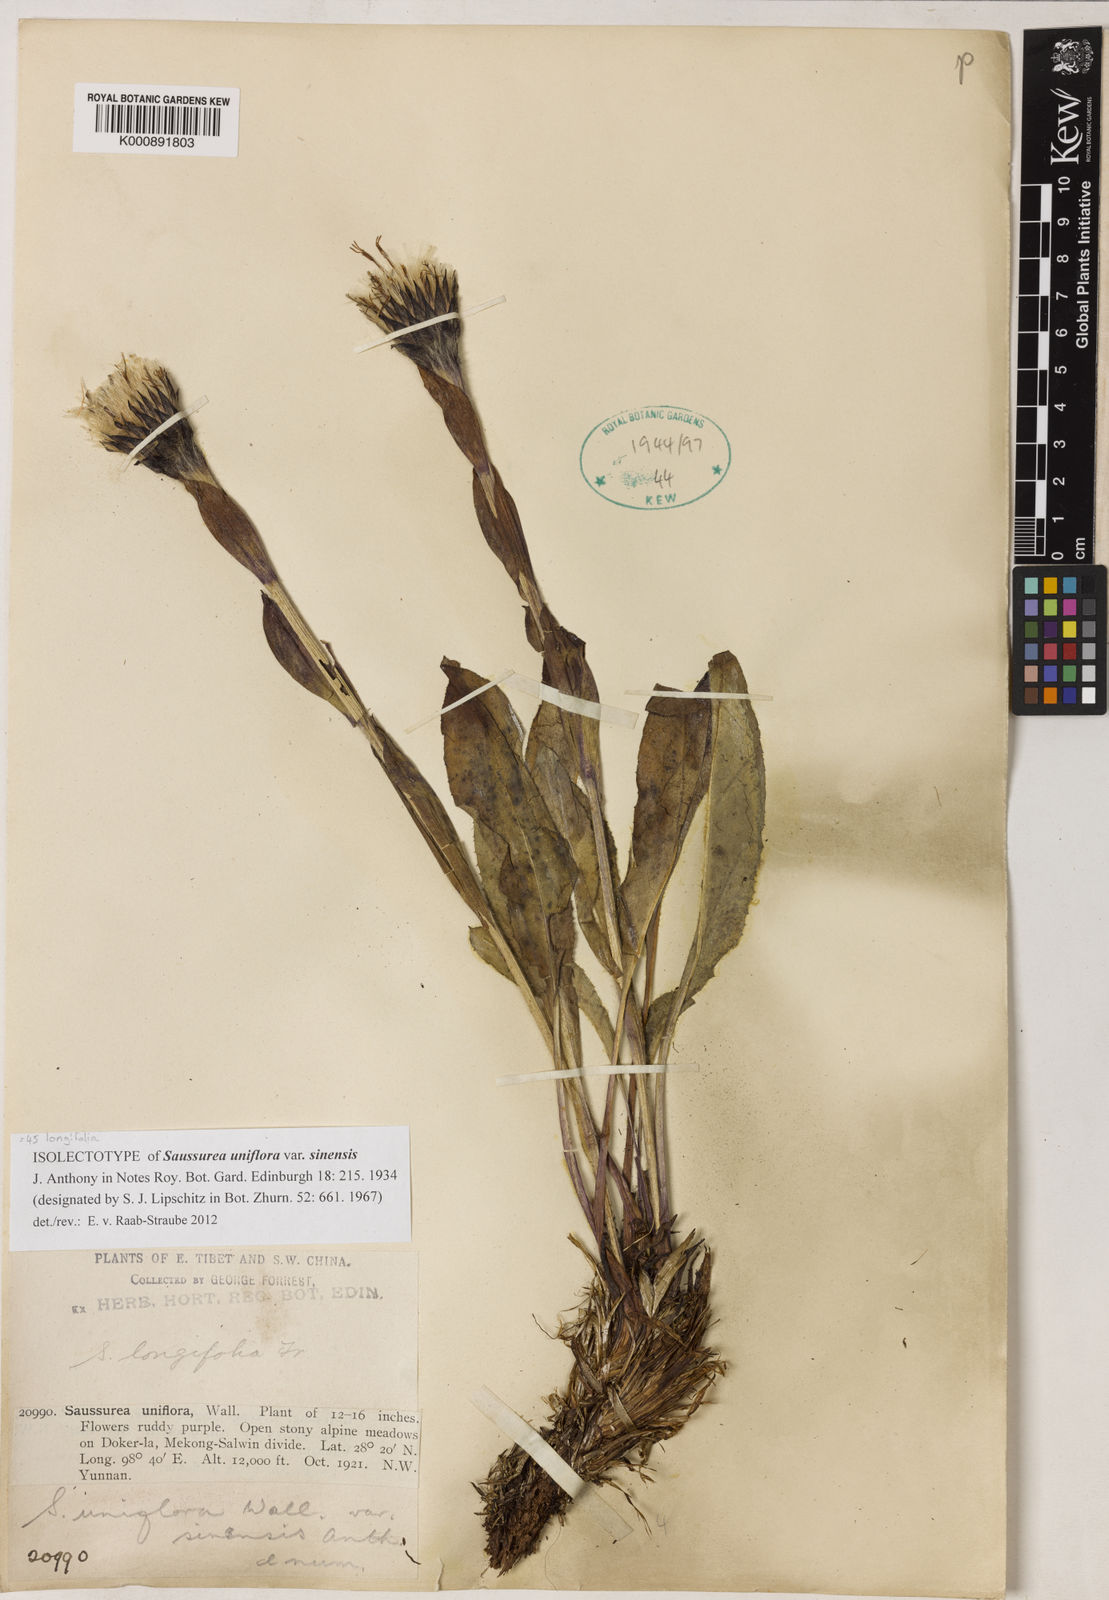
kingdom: Plantae
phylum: Tracheophyta
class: Magnoliopsida
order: Asterales
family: Asteraceae
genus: Saussurea
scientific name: Saussurea longifolia
